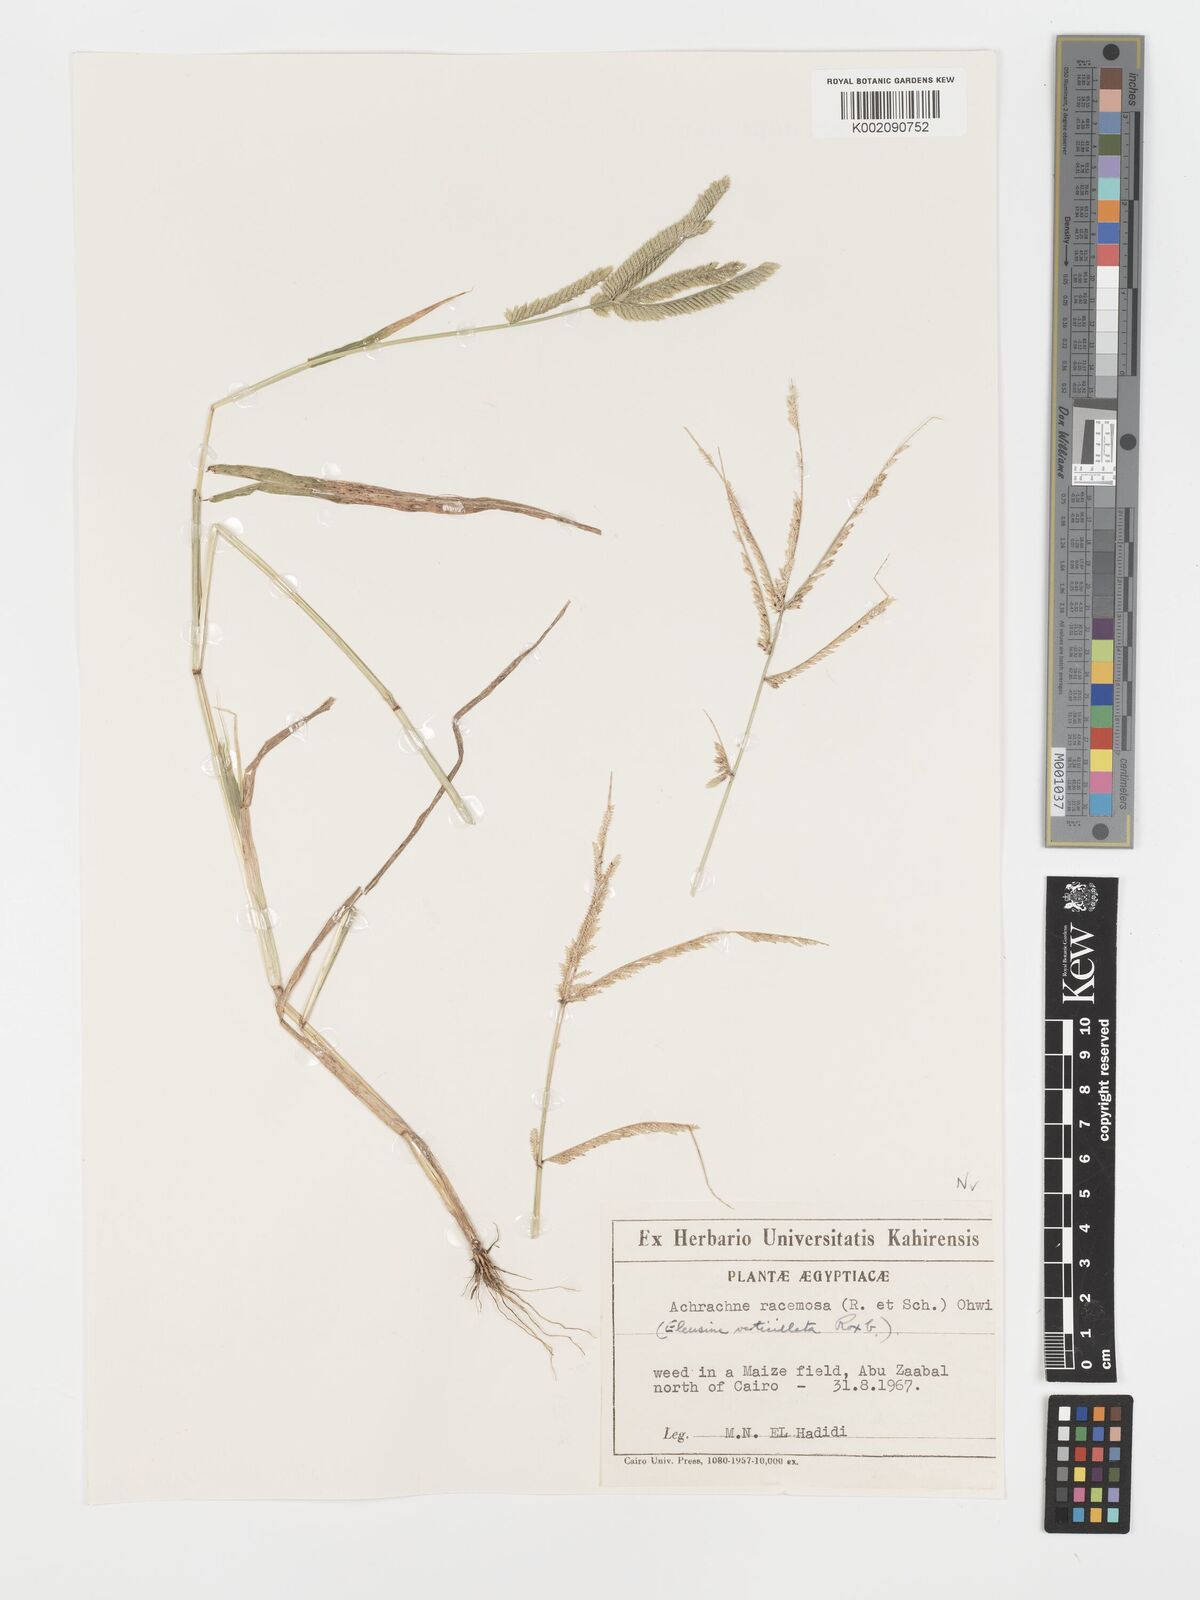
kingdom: Plantae
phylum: Tracheophyta
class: Liliopsida
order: Poales
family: Poaceae
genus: Acrachne
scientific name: Acrachne racemosa
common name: Goosegrass
